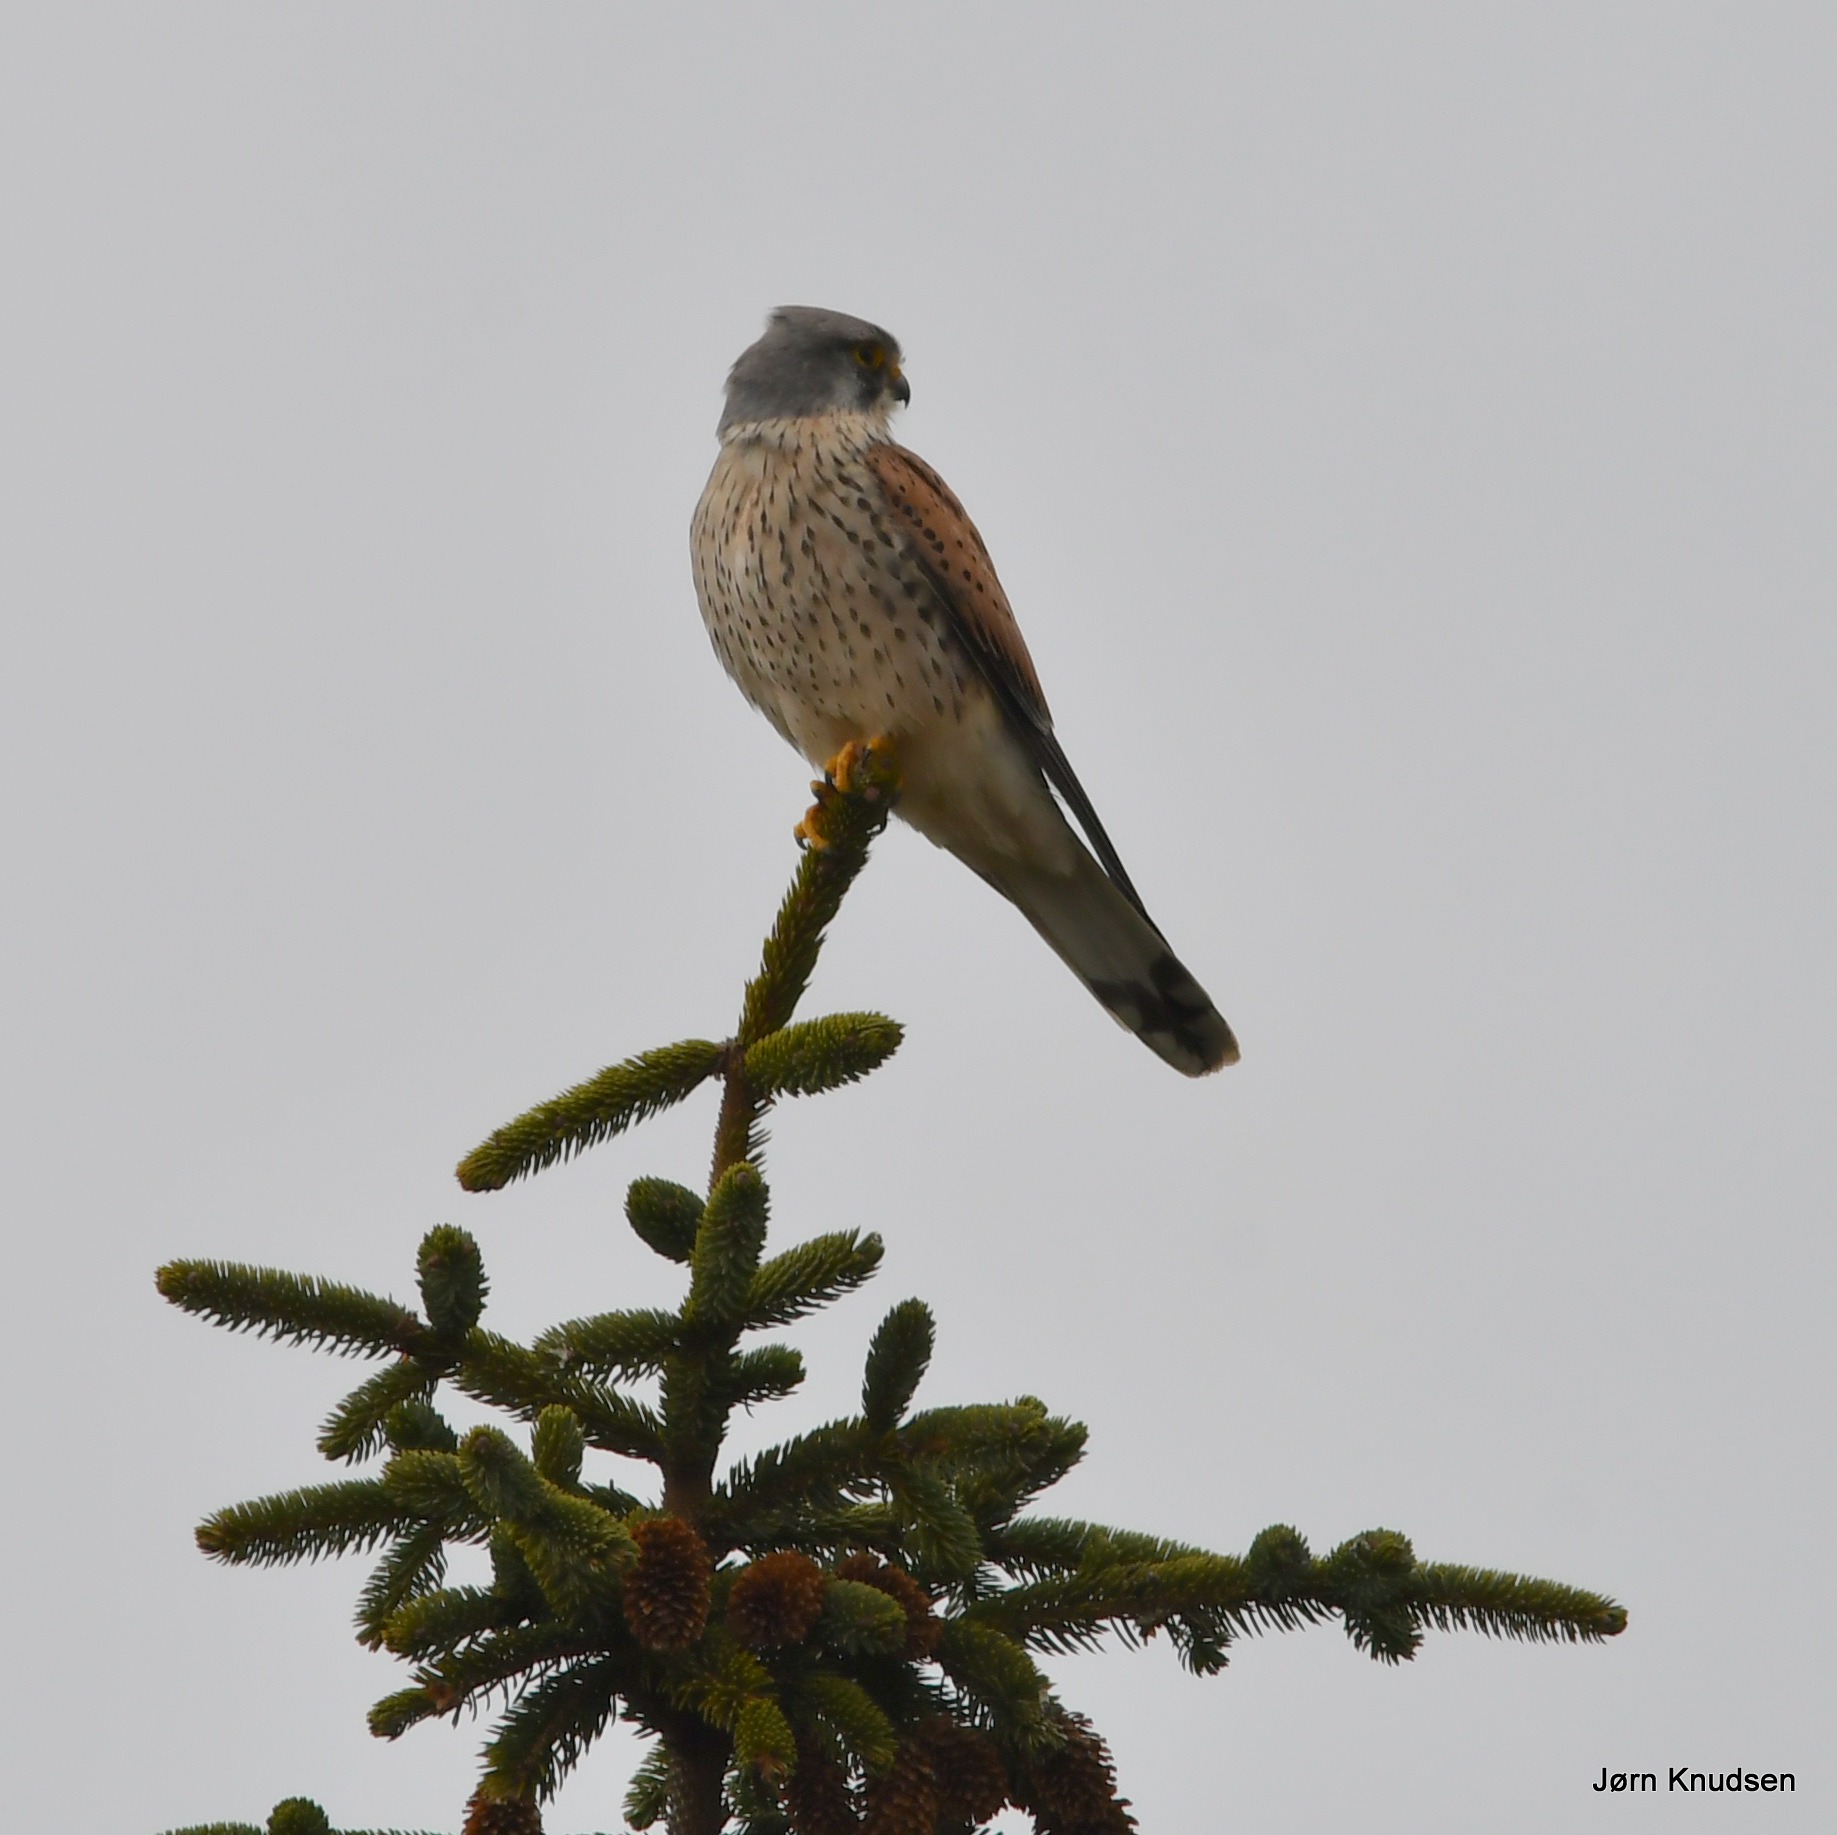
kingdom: Animalia
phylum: Chordata
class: Aves
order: Falconiformes
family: Falconidae
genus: Falco
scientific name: Falco tinnunculus
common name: Tårnfalk
